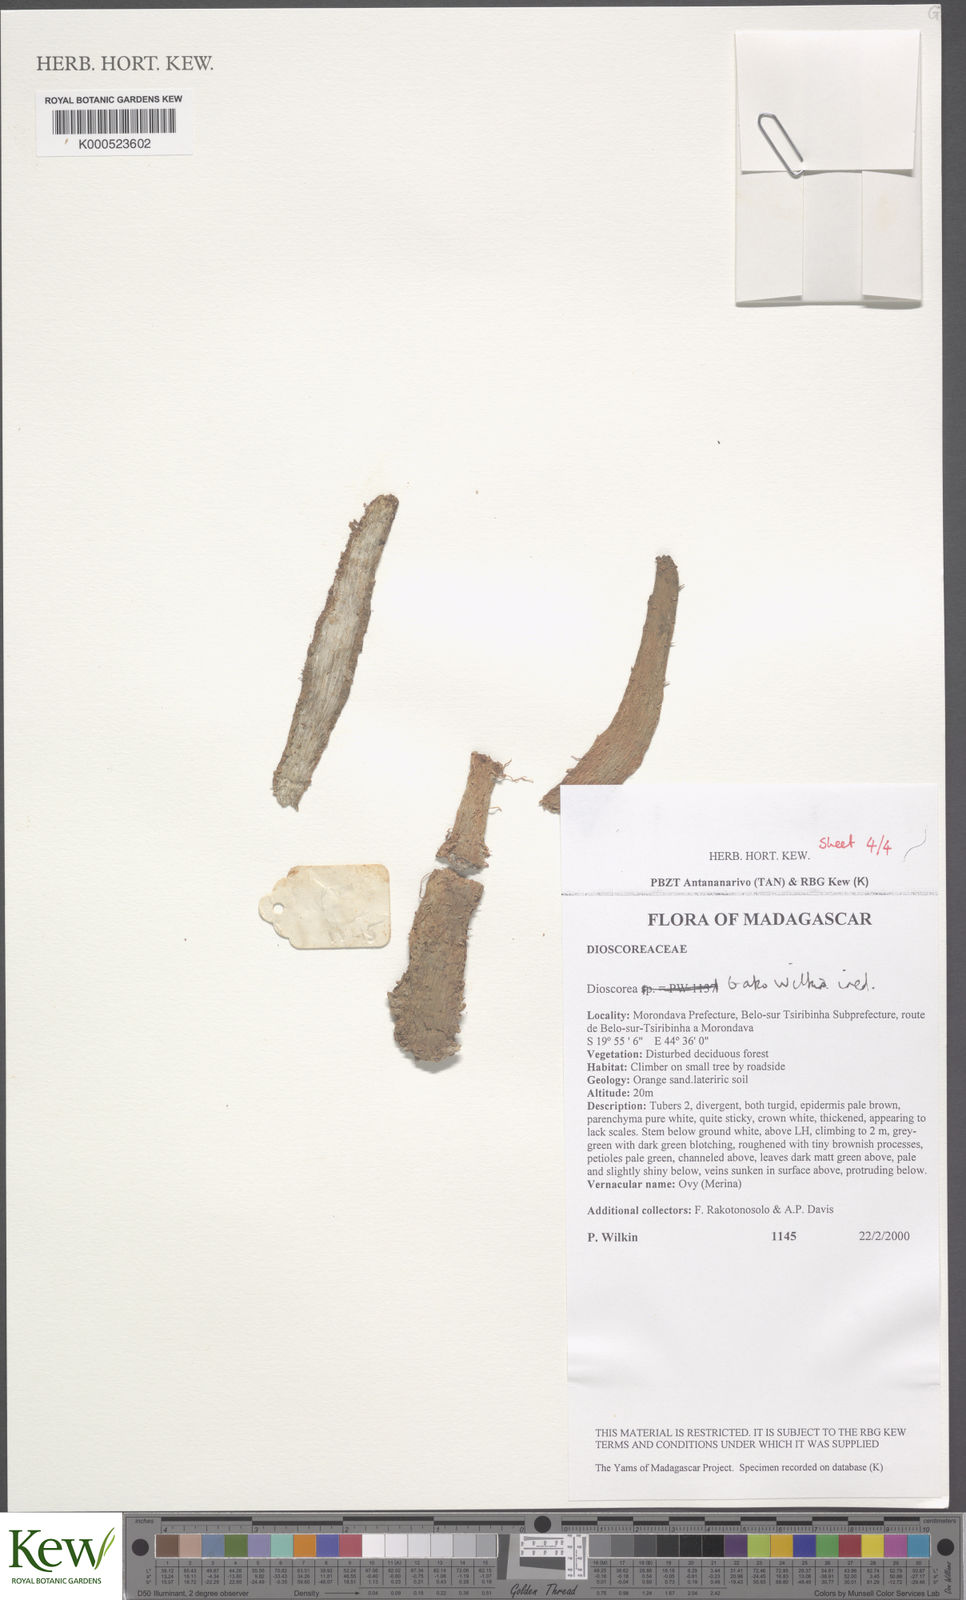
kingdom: Plantae
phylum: Tracheophyta
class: Liliopsida
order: Dioscoreales
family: Dioscoreaceae
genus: Dioscorea
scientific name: Dioscorea bako
